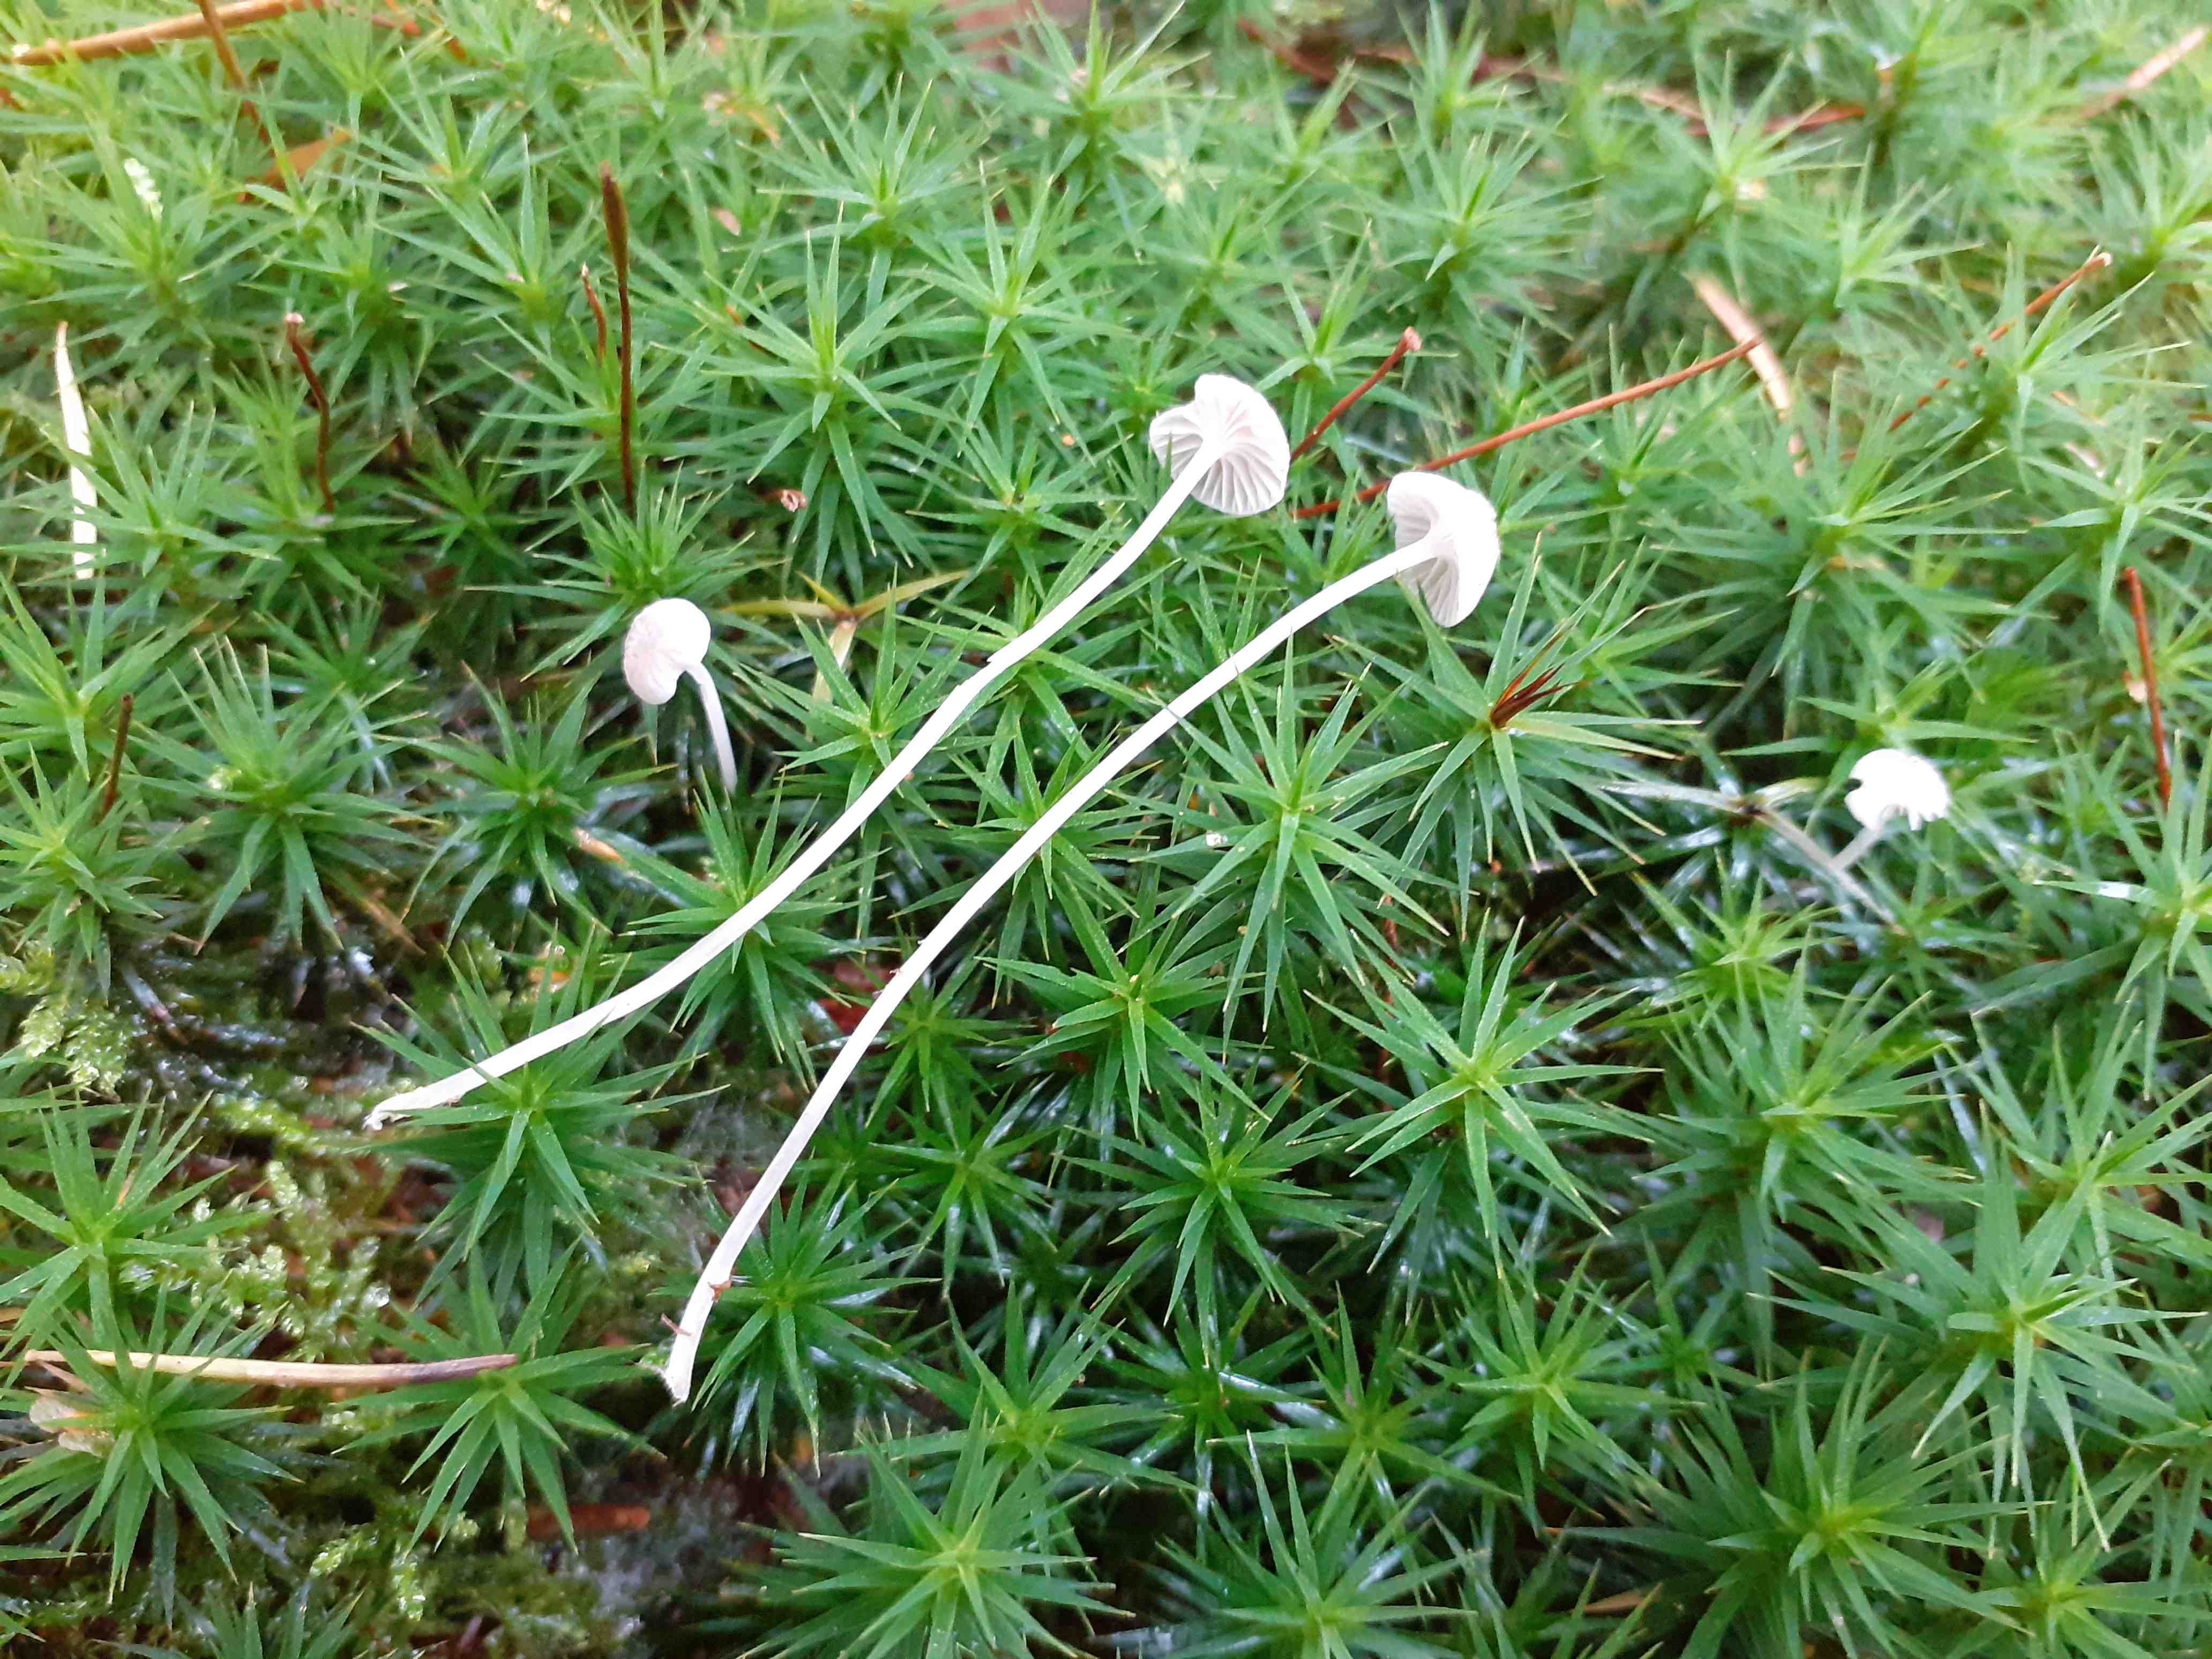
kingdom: Fungi
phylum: Basidiomycota
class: Agaricomycetes
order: Agaricales
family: Mycenaceae
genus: Mycena
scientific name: Mycena cinerella
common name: mel-huesvamp
